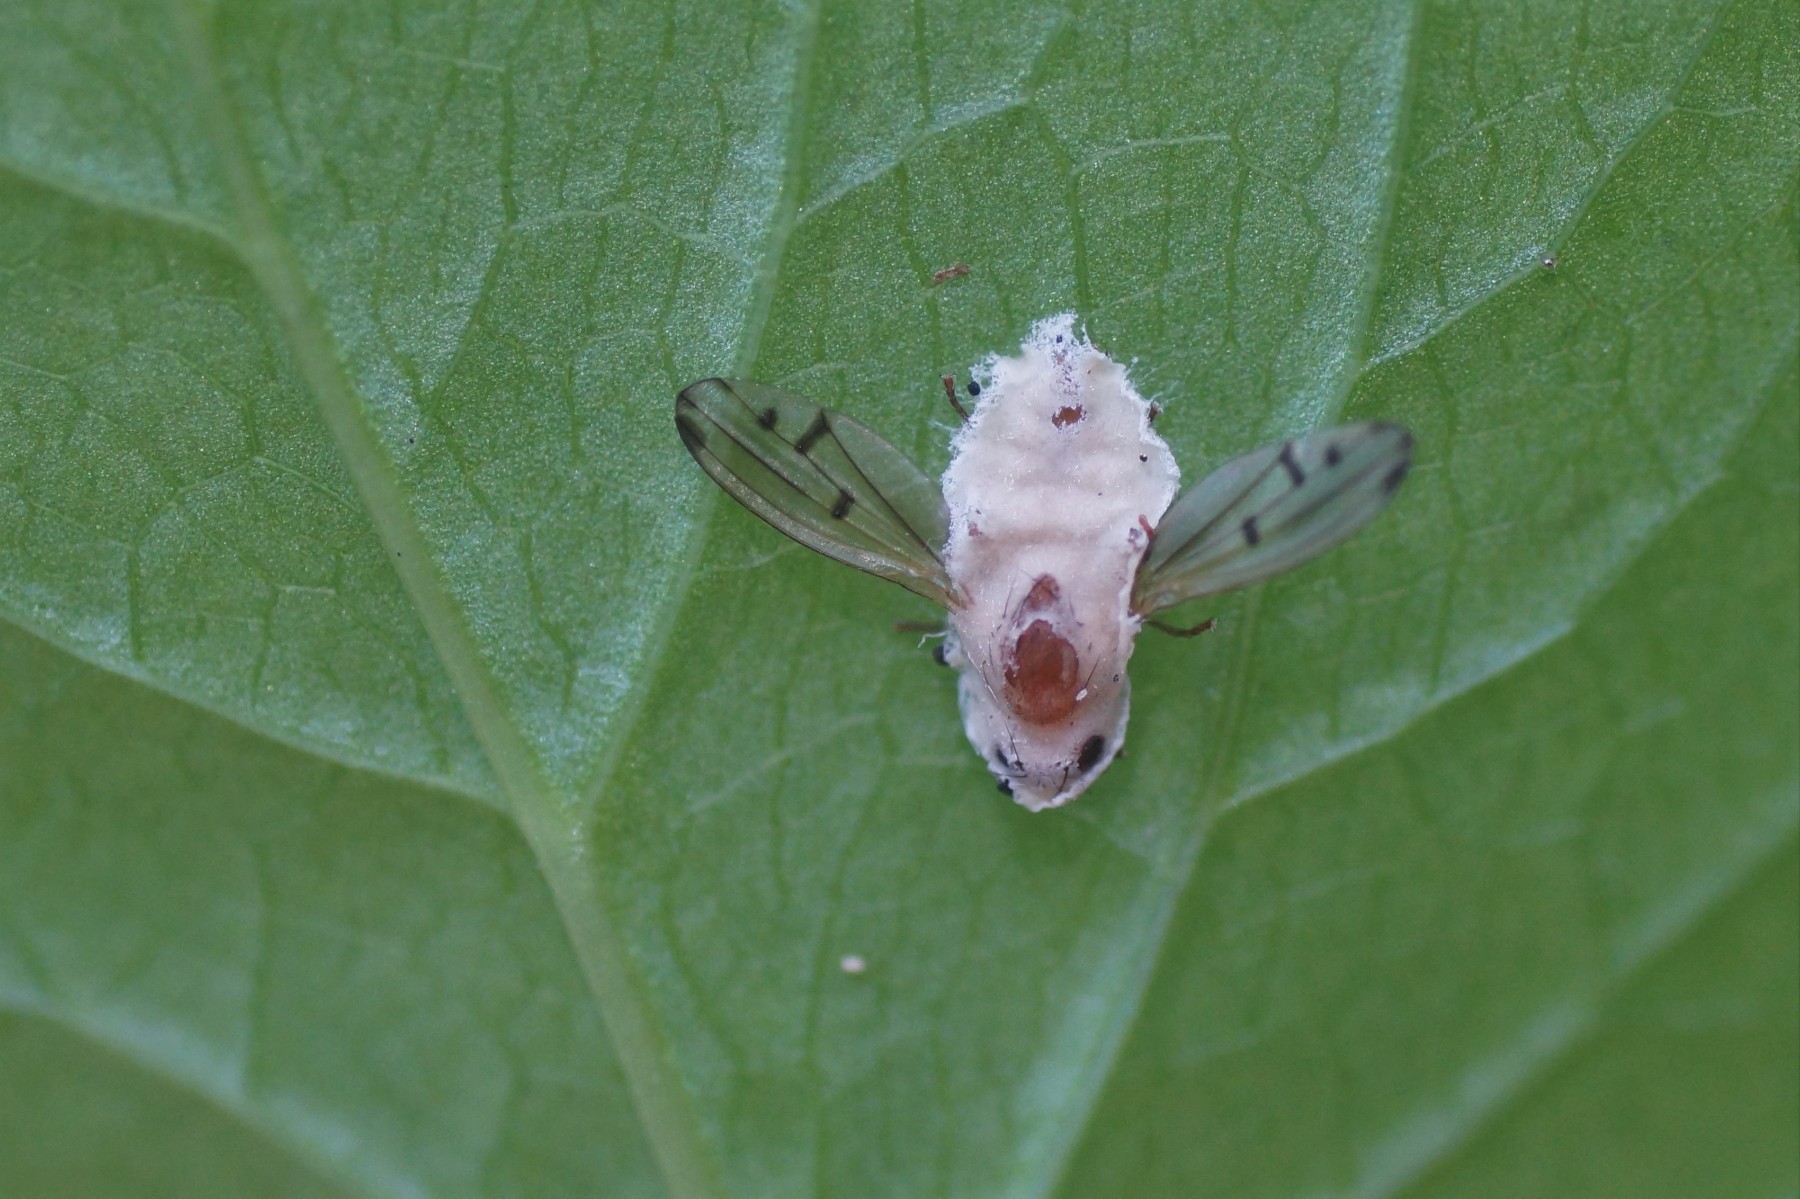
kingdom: Fungi
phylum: Entomophthoromycota
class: Entomophthoromycetes
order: Entomophthorales
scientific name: Entomophthorales
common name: flueskimmelordenen
